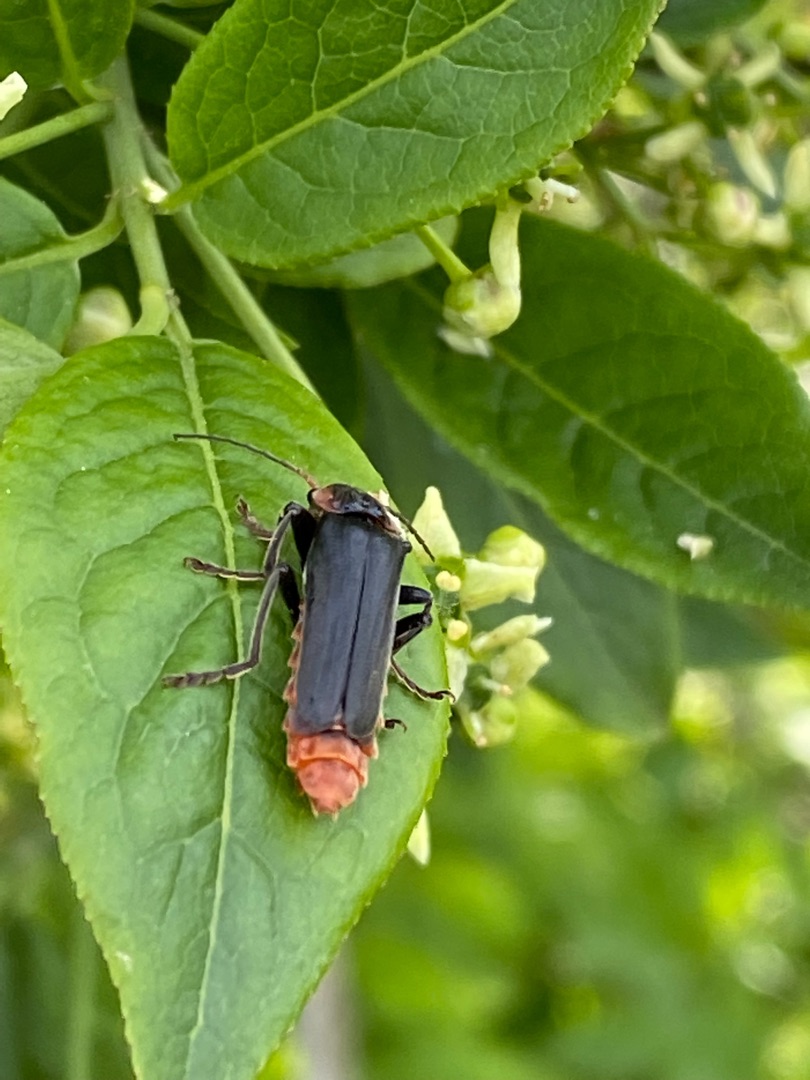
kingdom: Animalia
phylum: Arthropoda
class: Insecta
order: Coleoptera
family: Cantharidae
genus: Cantharis
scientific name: Cantharis fusca
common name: Stor blødvinge
